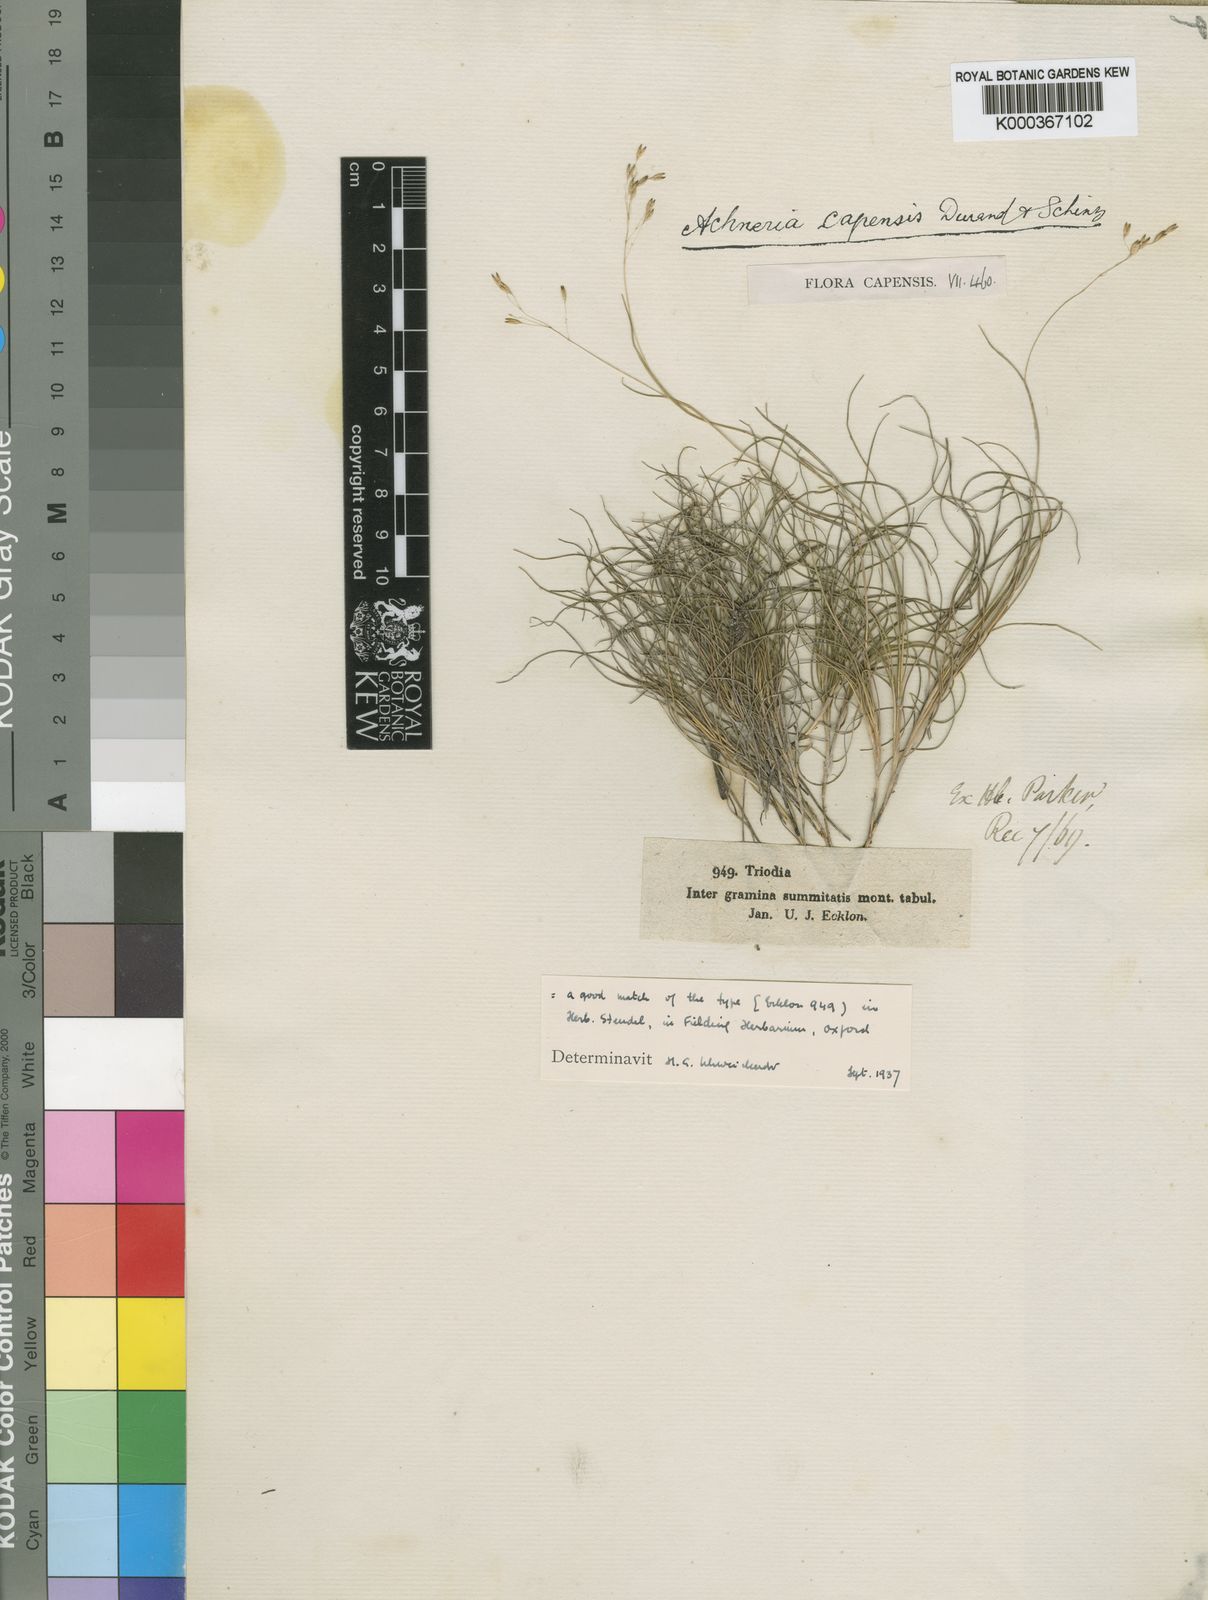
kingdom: Plantae
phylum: Tracheophyta
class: Liliopsida
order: Poales
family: Poaceae
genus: Pentameris
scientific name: Pentameris malouinensis
